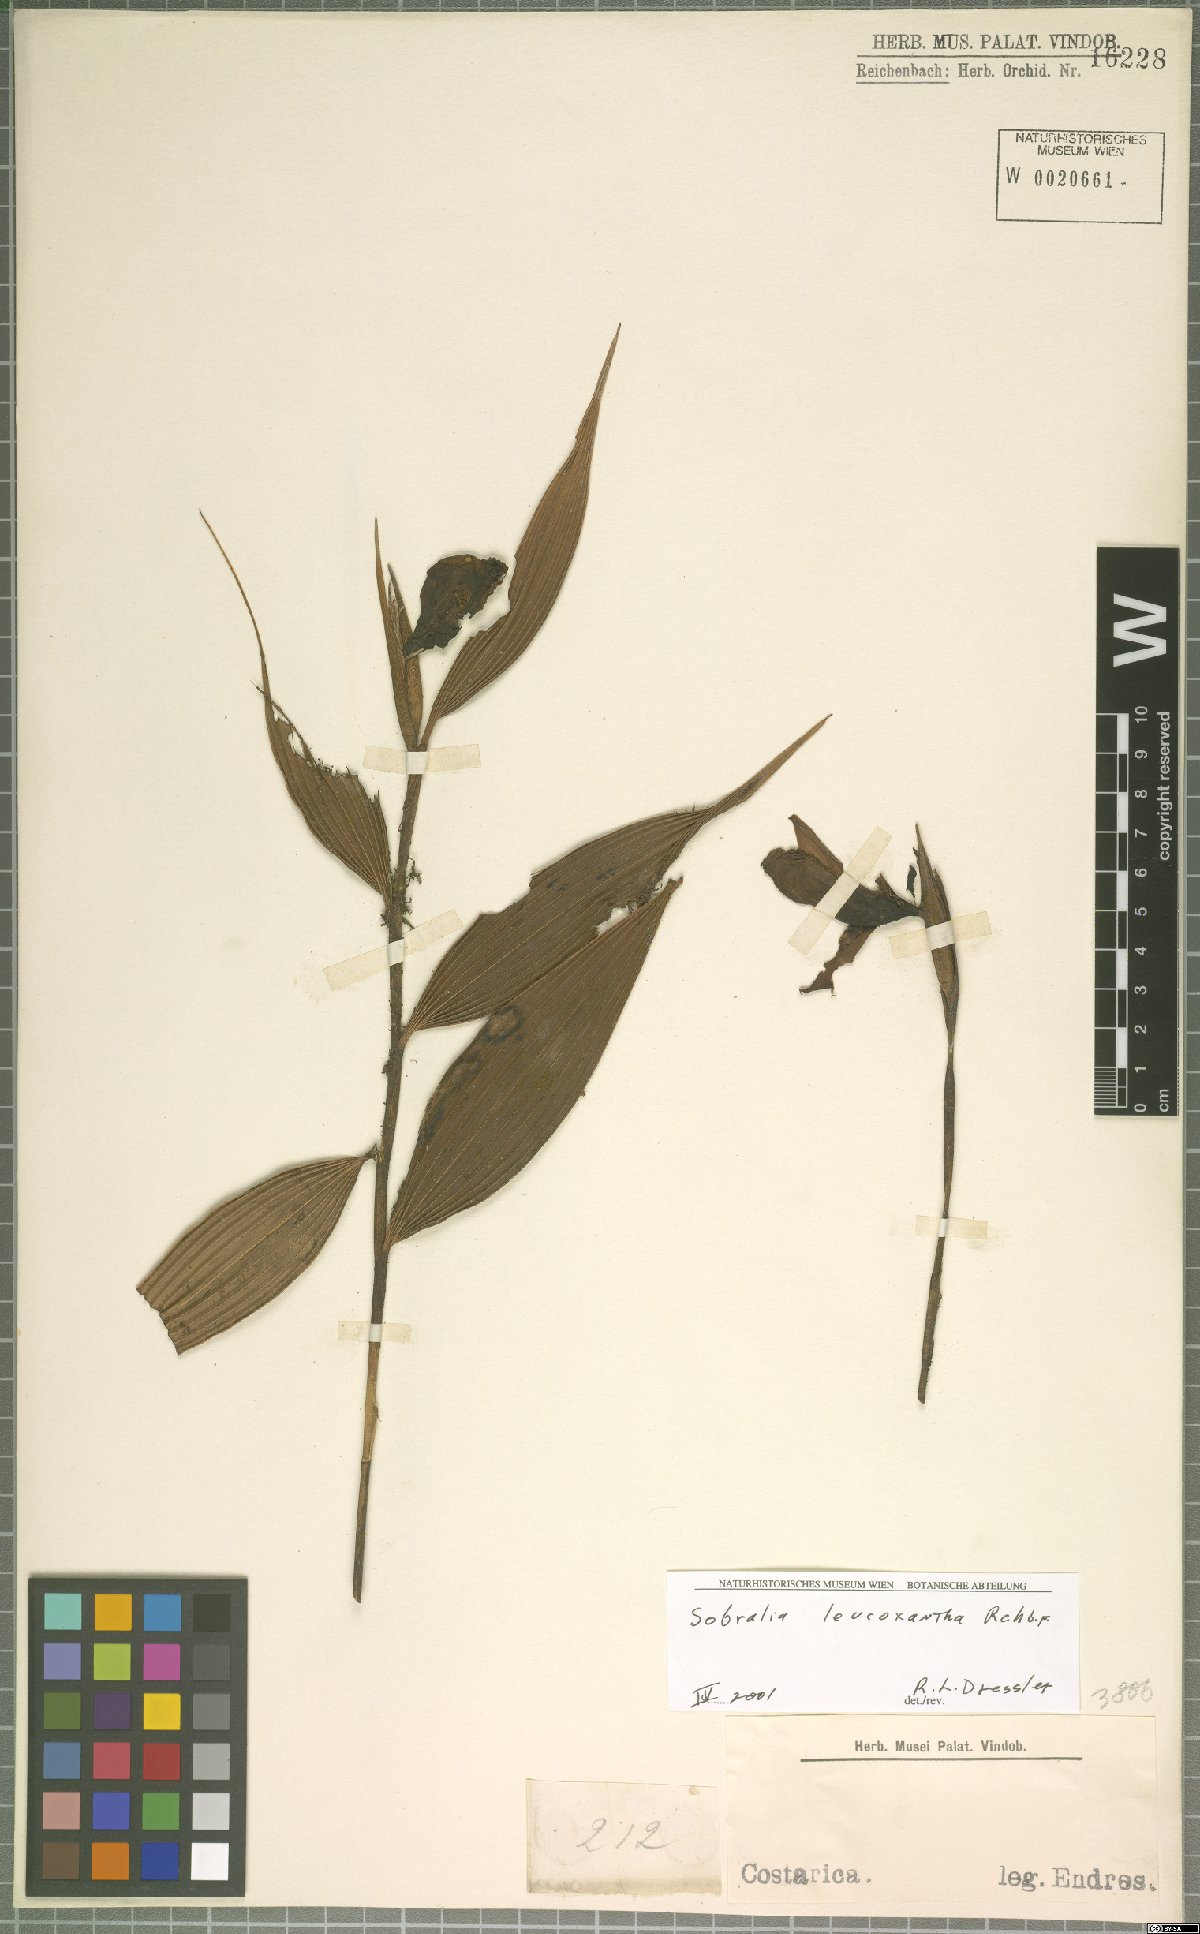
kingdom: Plantae
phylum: Tracheophyta
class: Liliopsida
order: Asparagales
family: Orchidaceae
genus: Sobralia
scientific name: Sobralia leucoxantha
